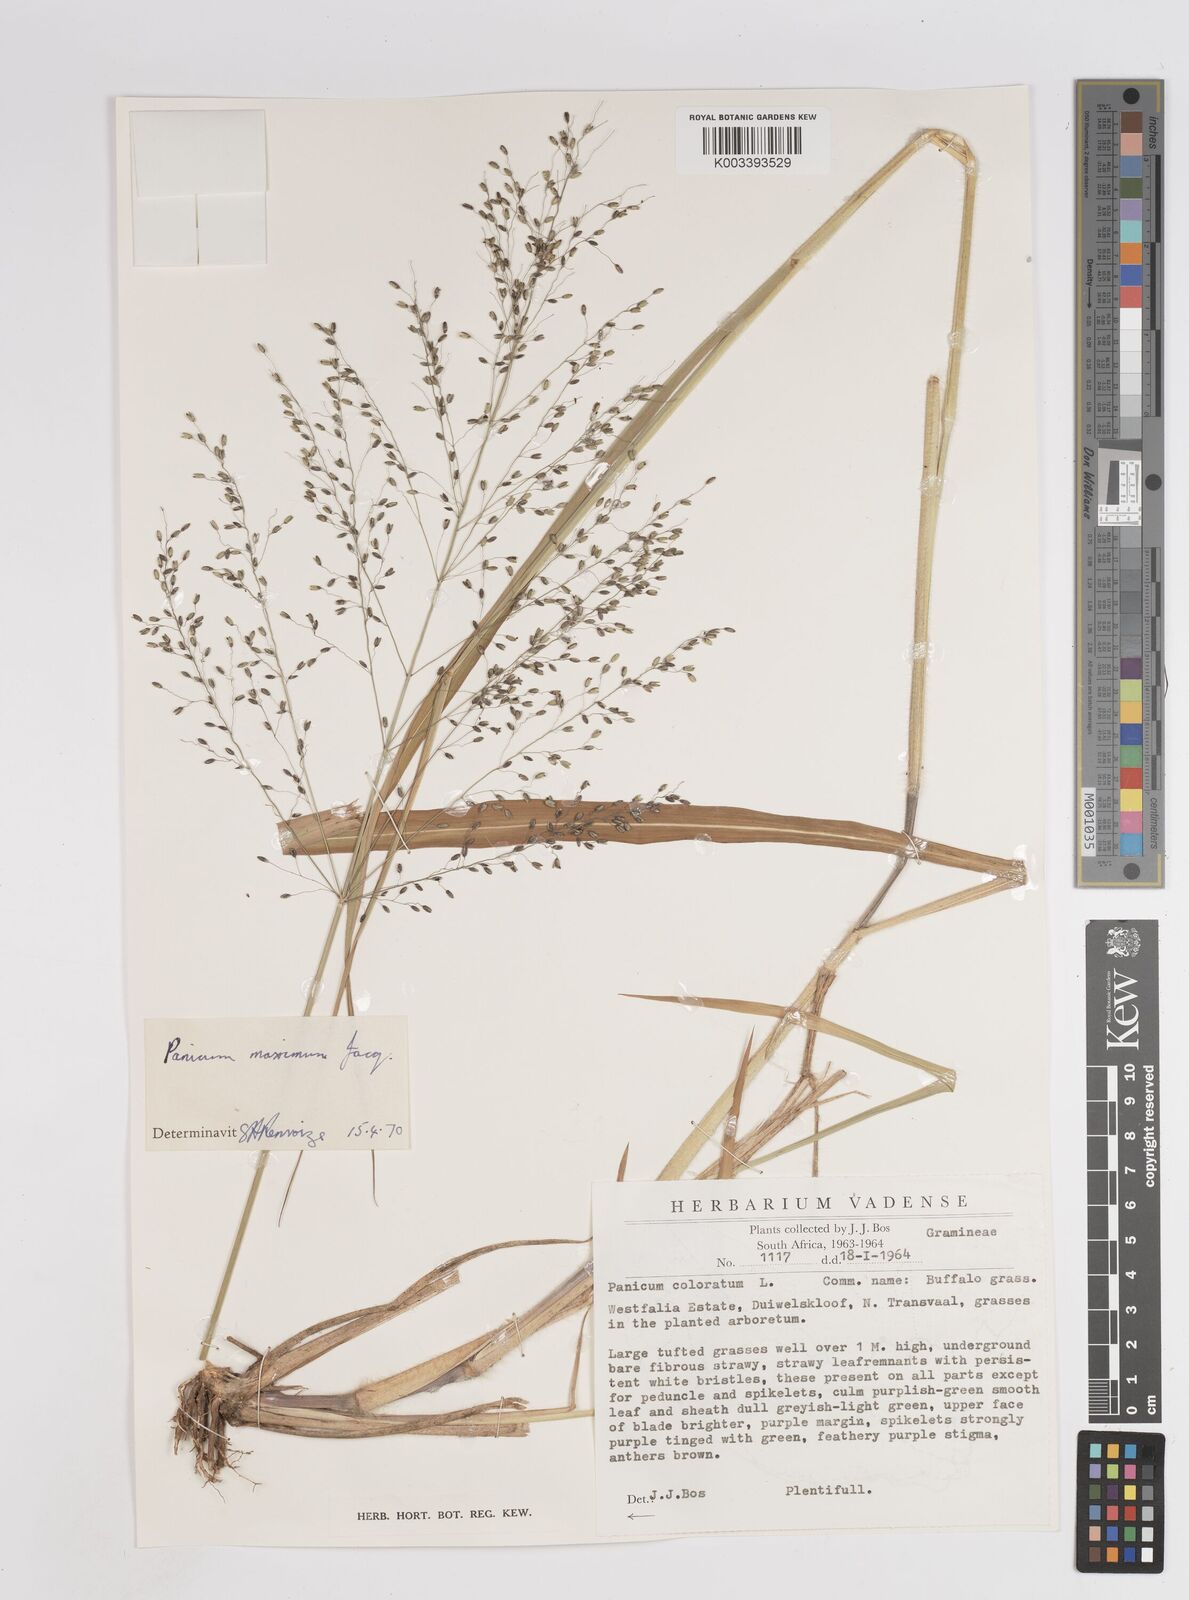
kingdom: Plantae
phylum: Tracheophyta
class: Liliopsida
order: Poales
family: Poaceae
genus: Megathyrsus
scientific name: Megathyrsus maximus
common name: Guineagrass
